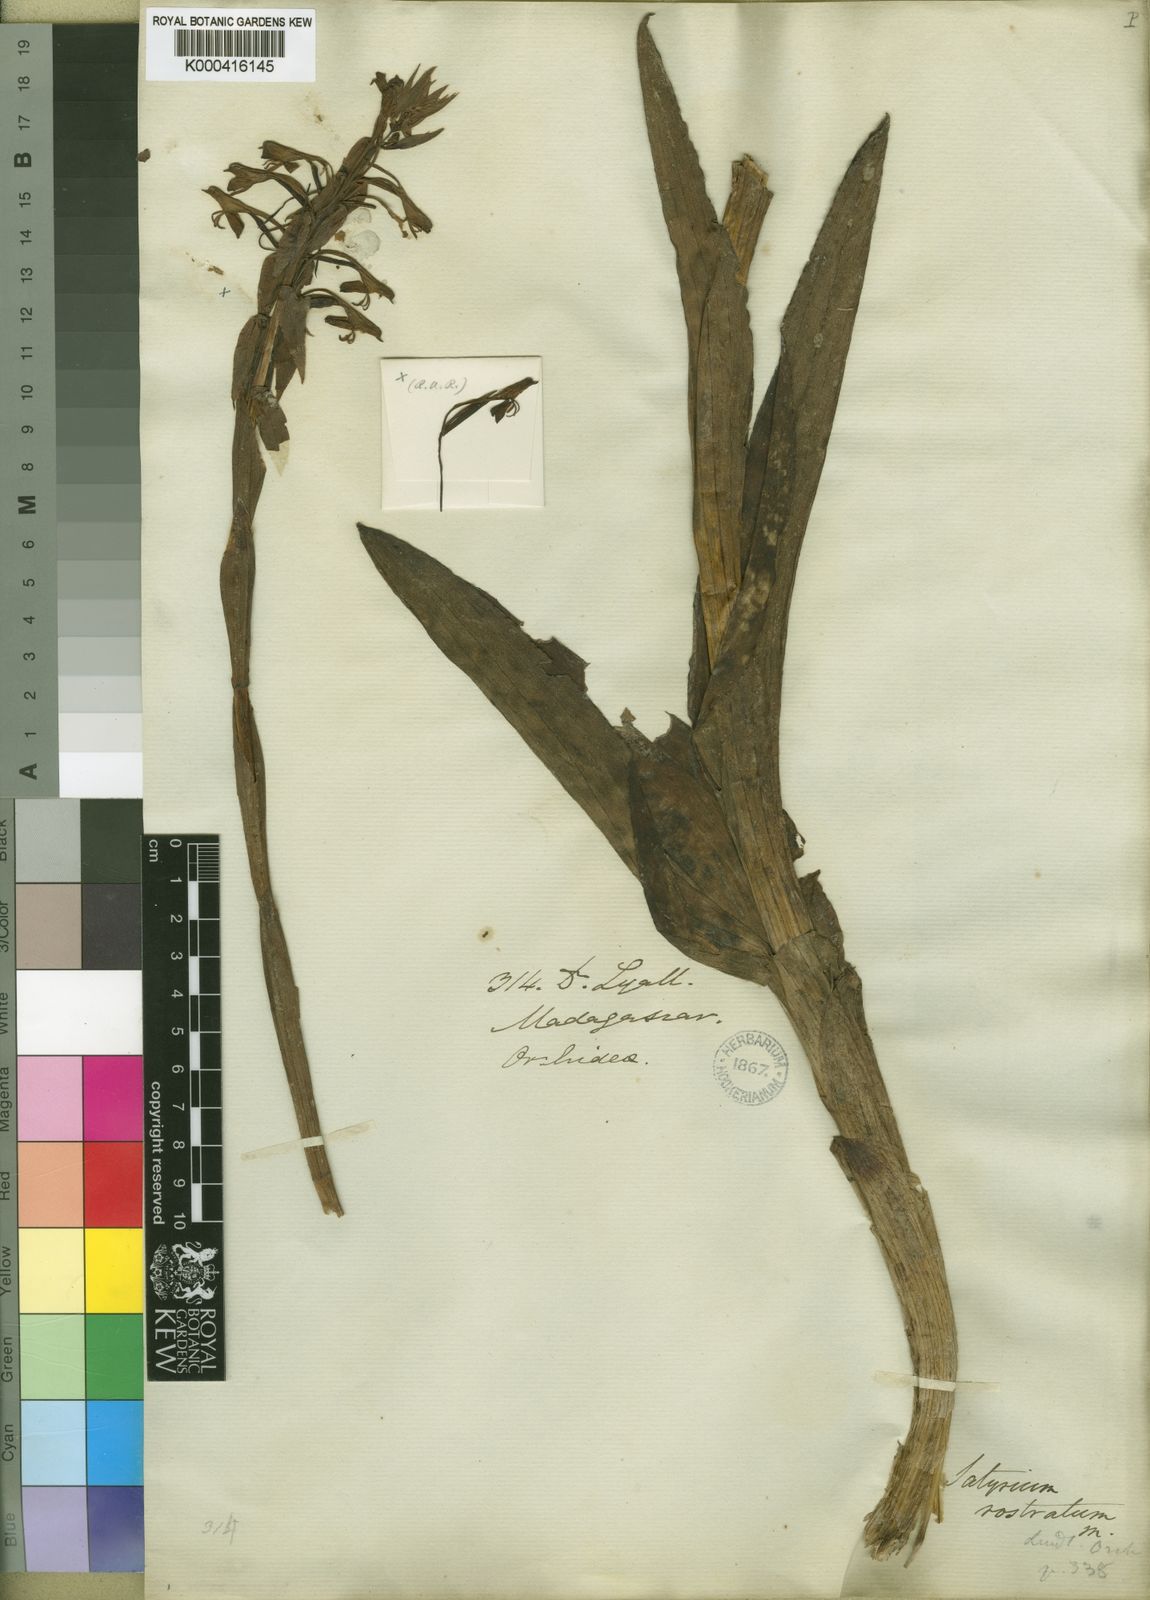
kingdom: Plantae
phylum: Tracheophyta
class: Liliopsida
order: Asparagales
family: Orchidaceae
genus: Satyrium
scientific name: Satyrium rostratum
